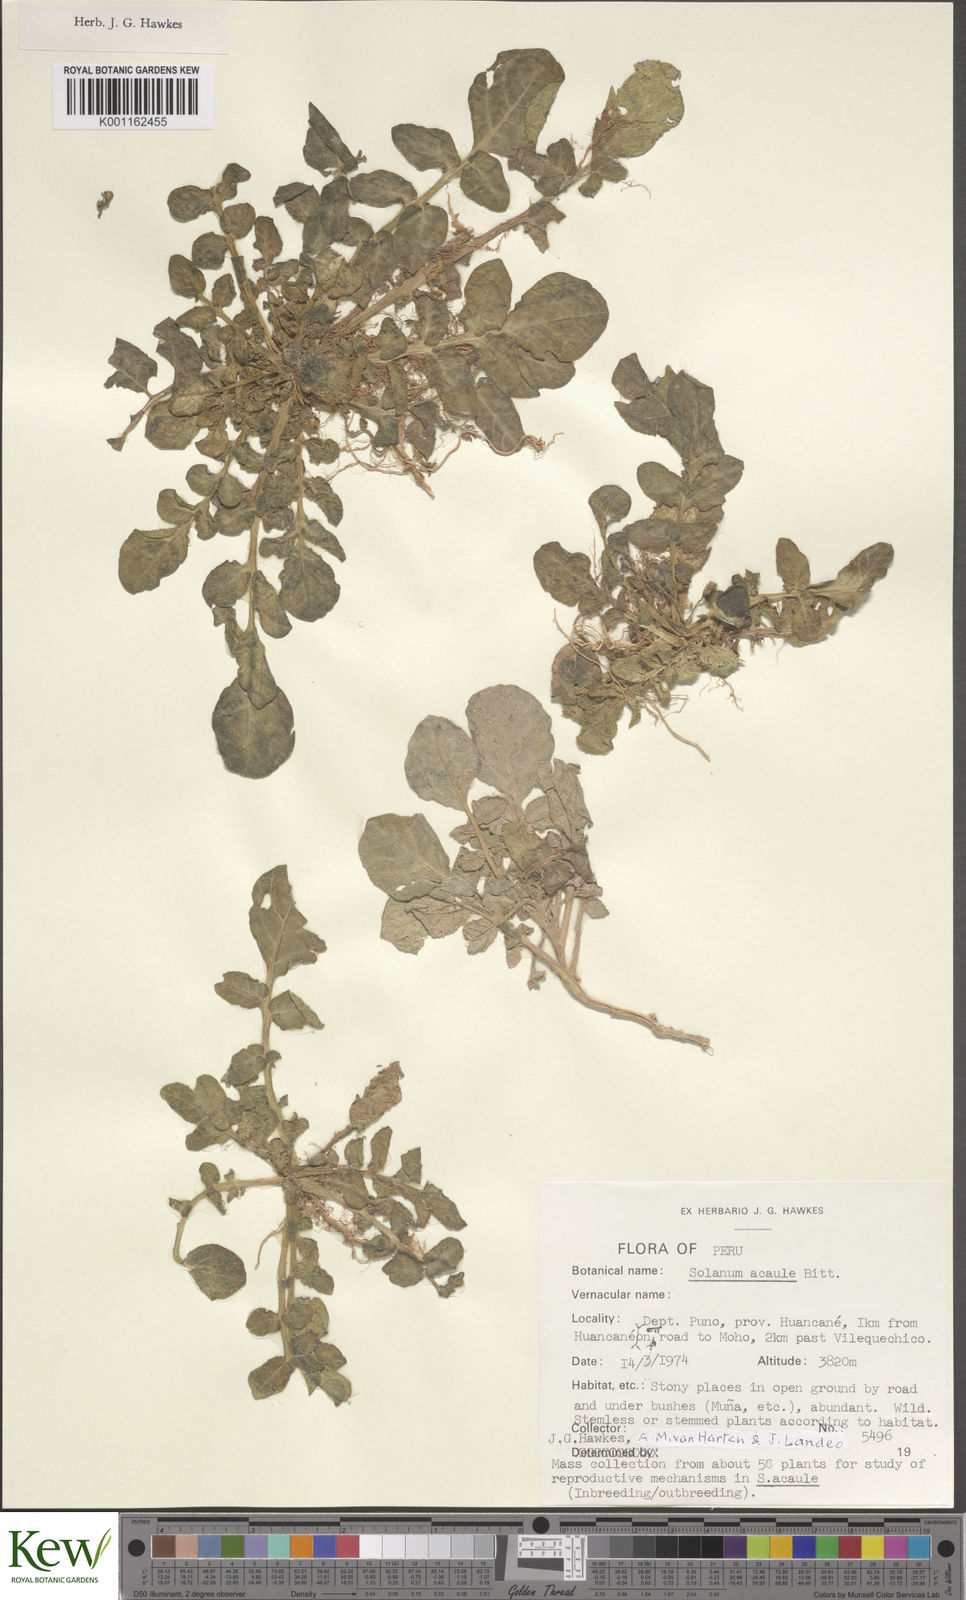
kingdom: Plantae
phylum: Tracheophyta
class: Magnoliopsida
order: Solanales
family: Solanaceae
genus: Solanum
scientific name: Solanum acaule
